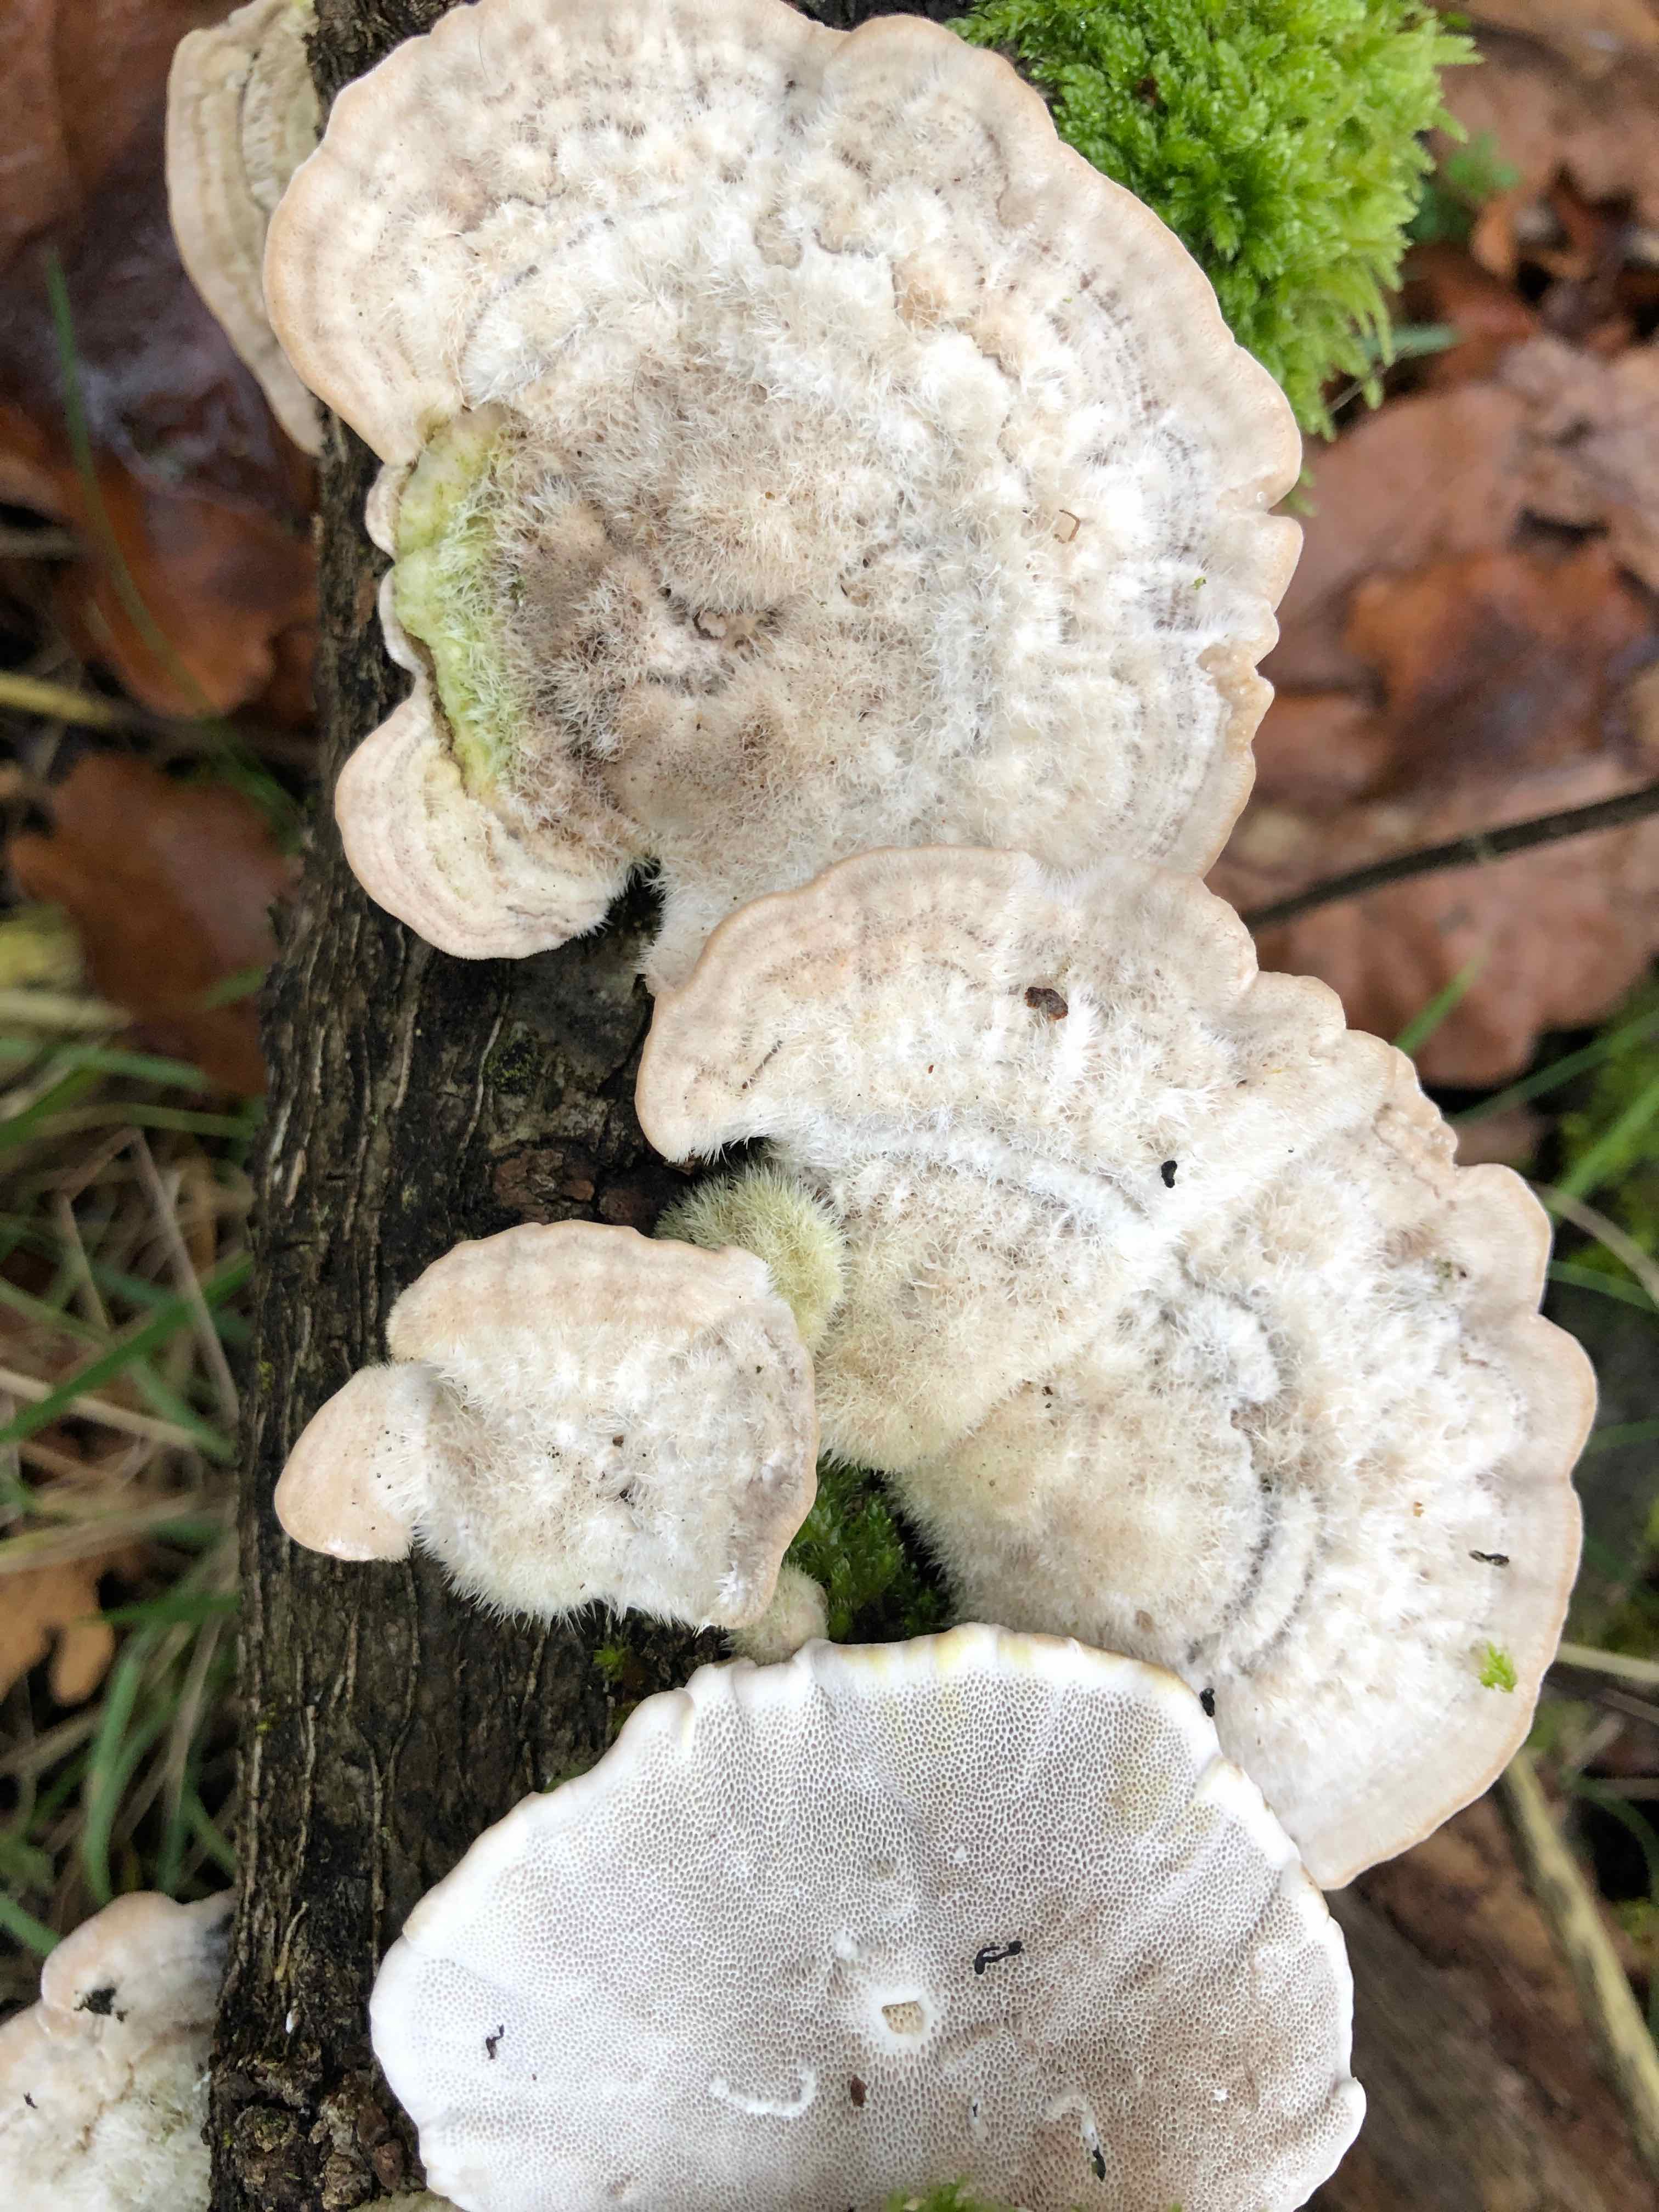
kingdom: Fungi
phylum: Basidiomycota
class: Agaricomycetes
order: Polyporales
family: Polyporaceae
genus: Trametes
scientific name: Trametes hirsuta
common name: håret læderporesvamp
